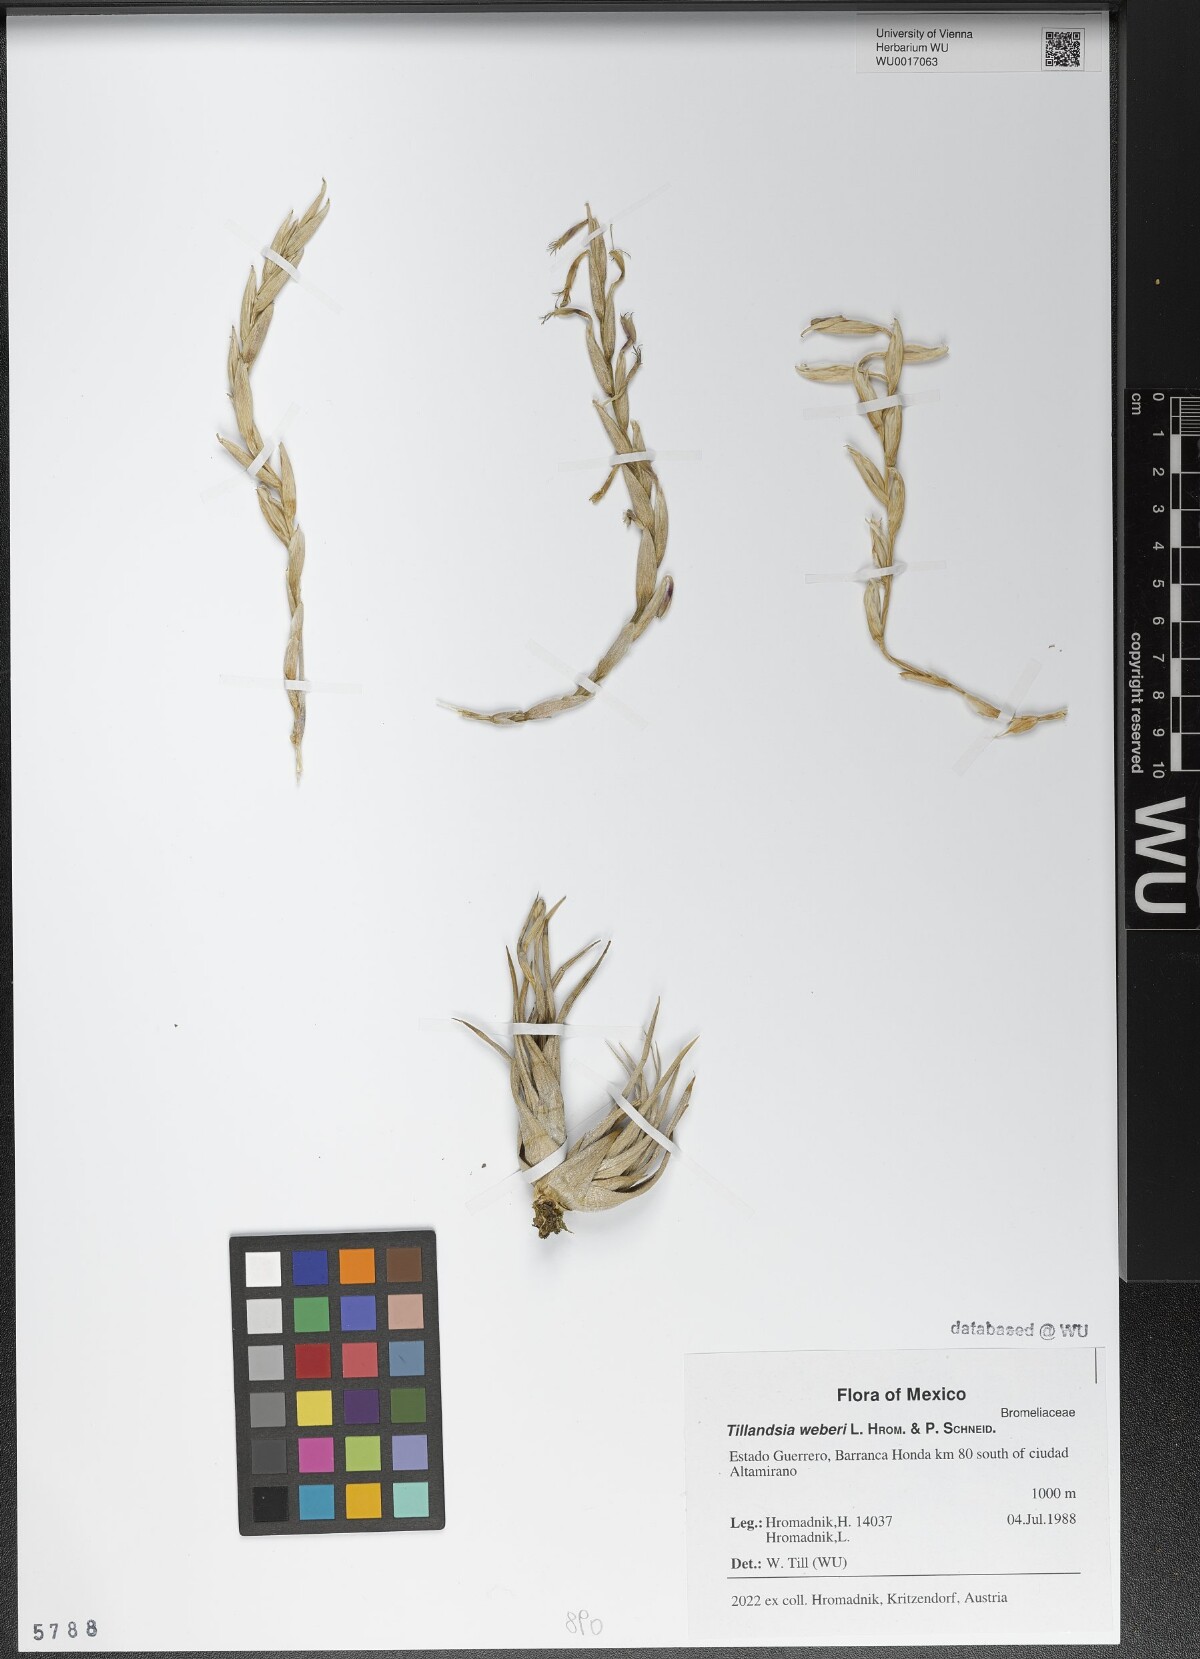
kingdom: Plantae
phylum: Tracheophyta
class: Liliopsida
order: Poales
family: Bromeliaceae
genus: Tillandsia
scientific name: Tillandsia weberi
